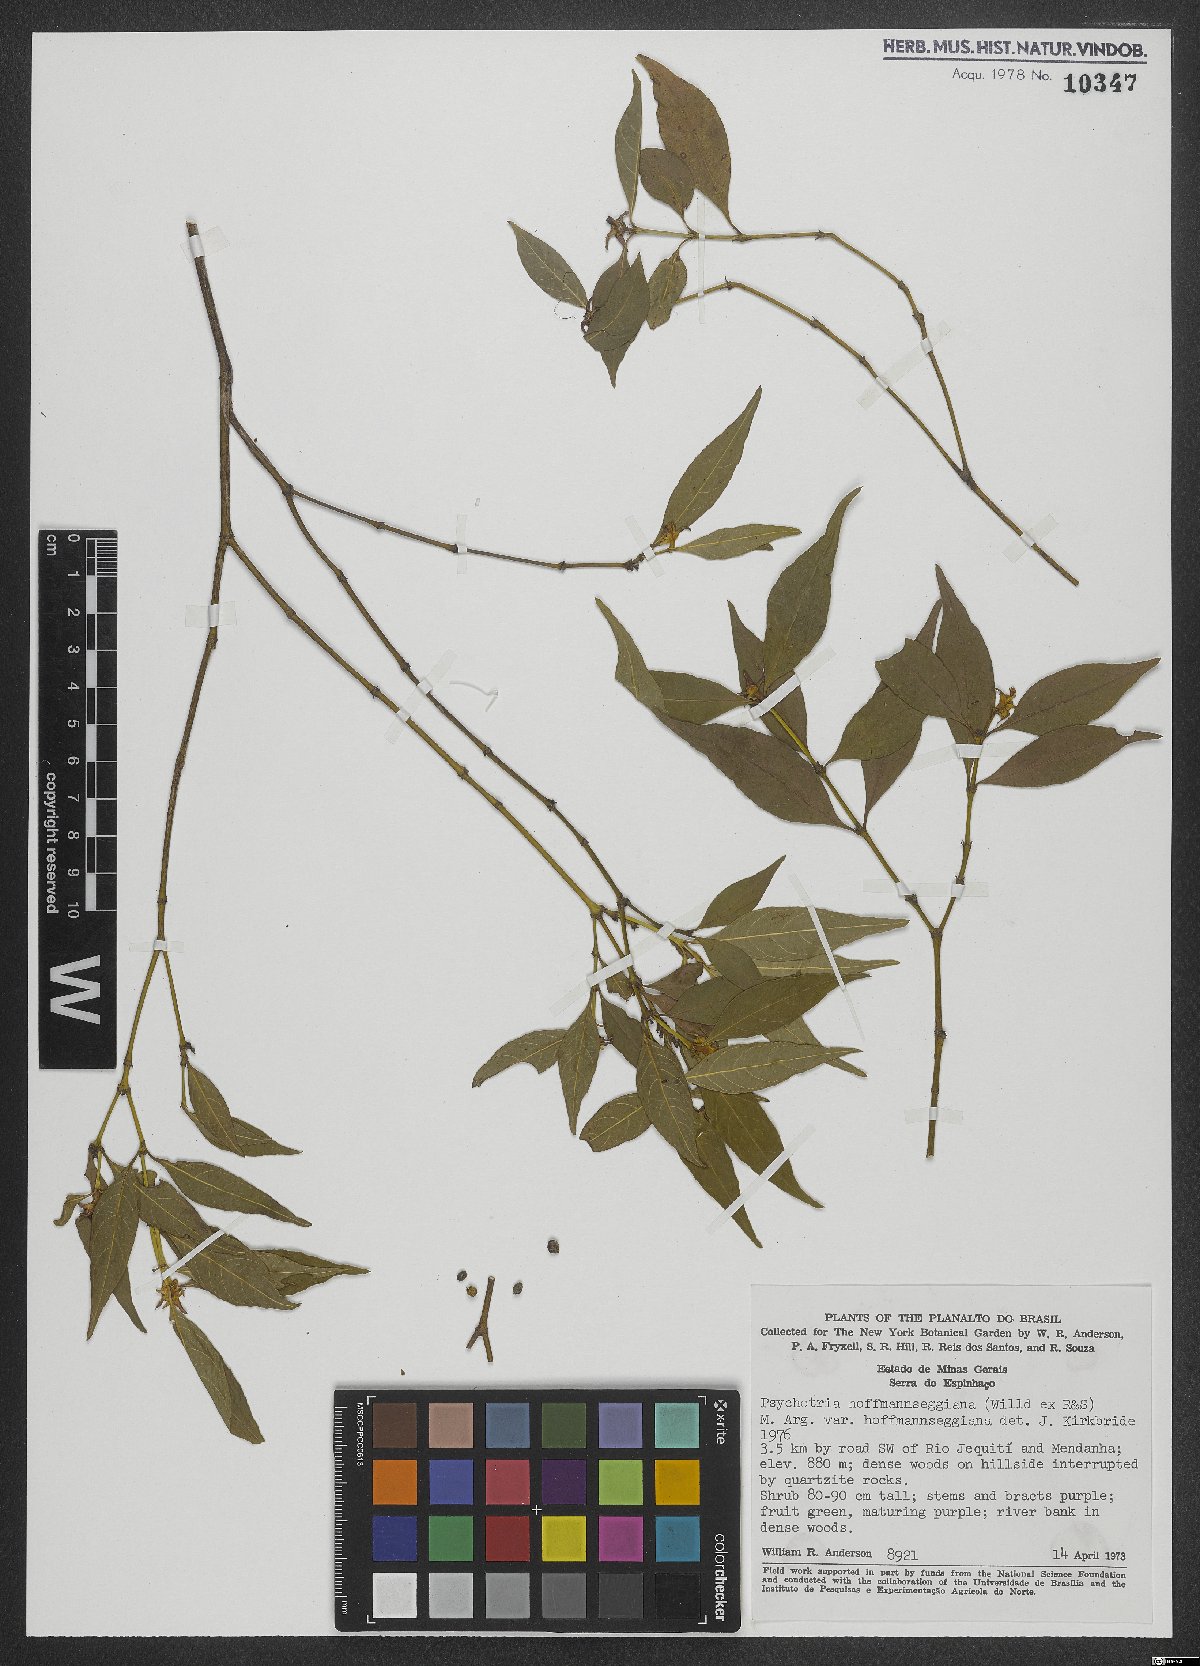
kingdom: Plantae
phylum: Tracheophyta
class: Magnoliopsida
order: Gentianales
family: Rubiaceae
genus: Palicourea
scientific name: Palicourea hoffmannseggiana
